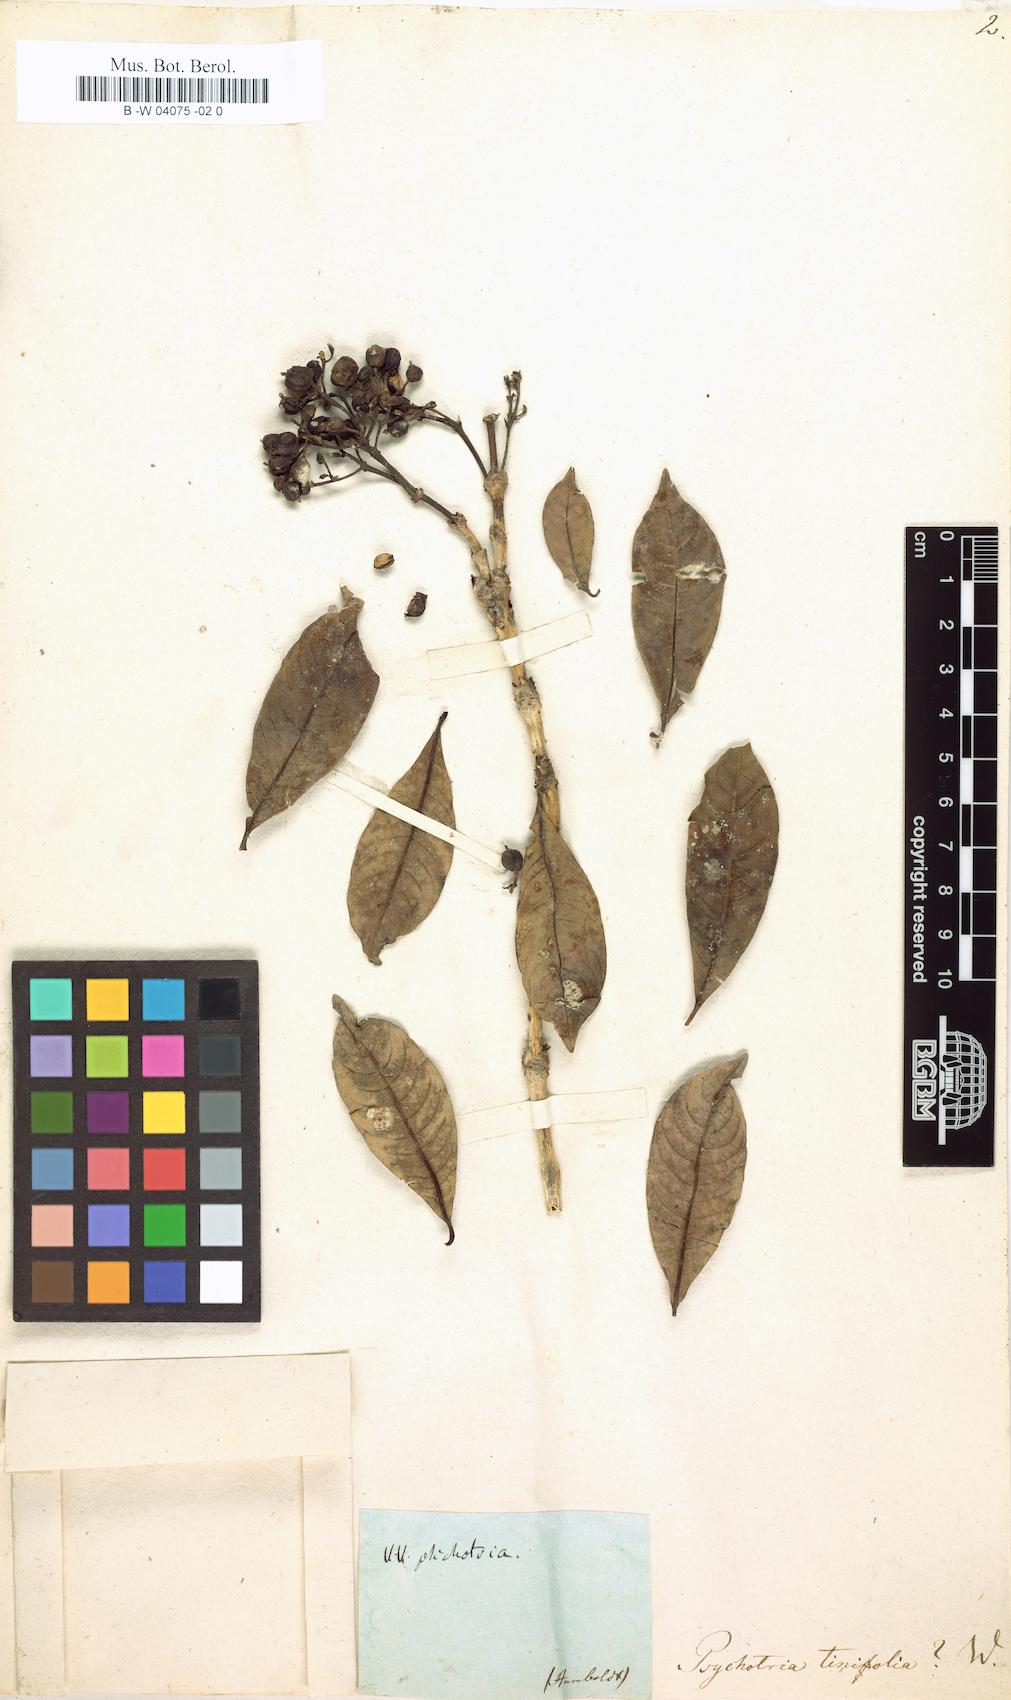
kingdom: Plantae
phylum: Tracheophyta
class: Magnoliopsida
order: Gentianales
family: Rubiaceae
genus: Palicourea
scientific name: Palicourea apicata
